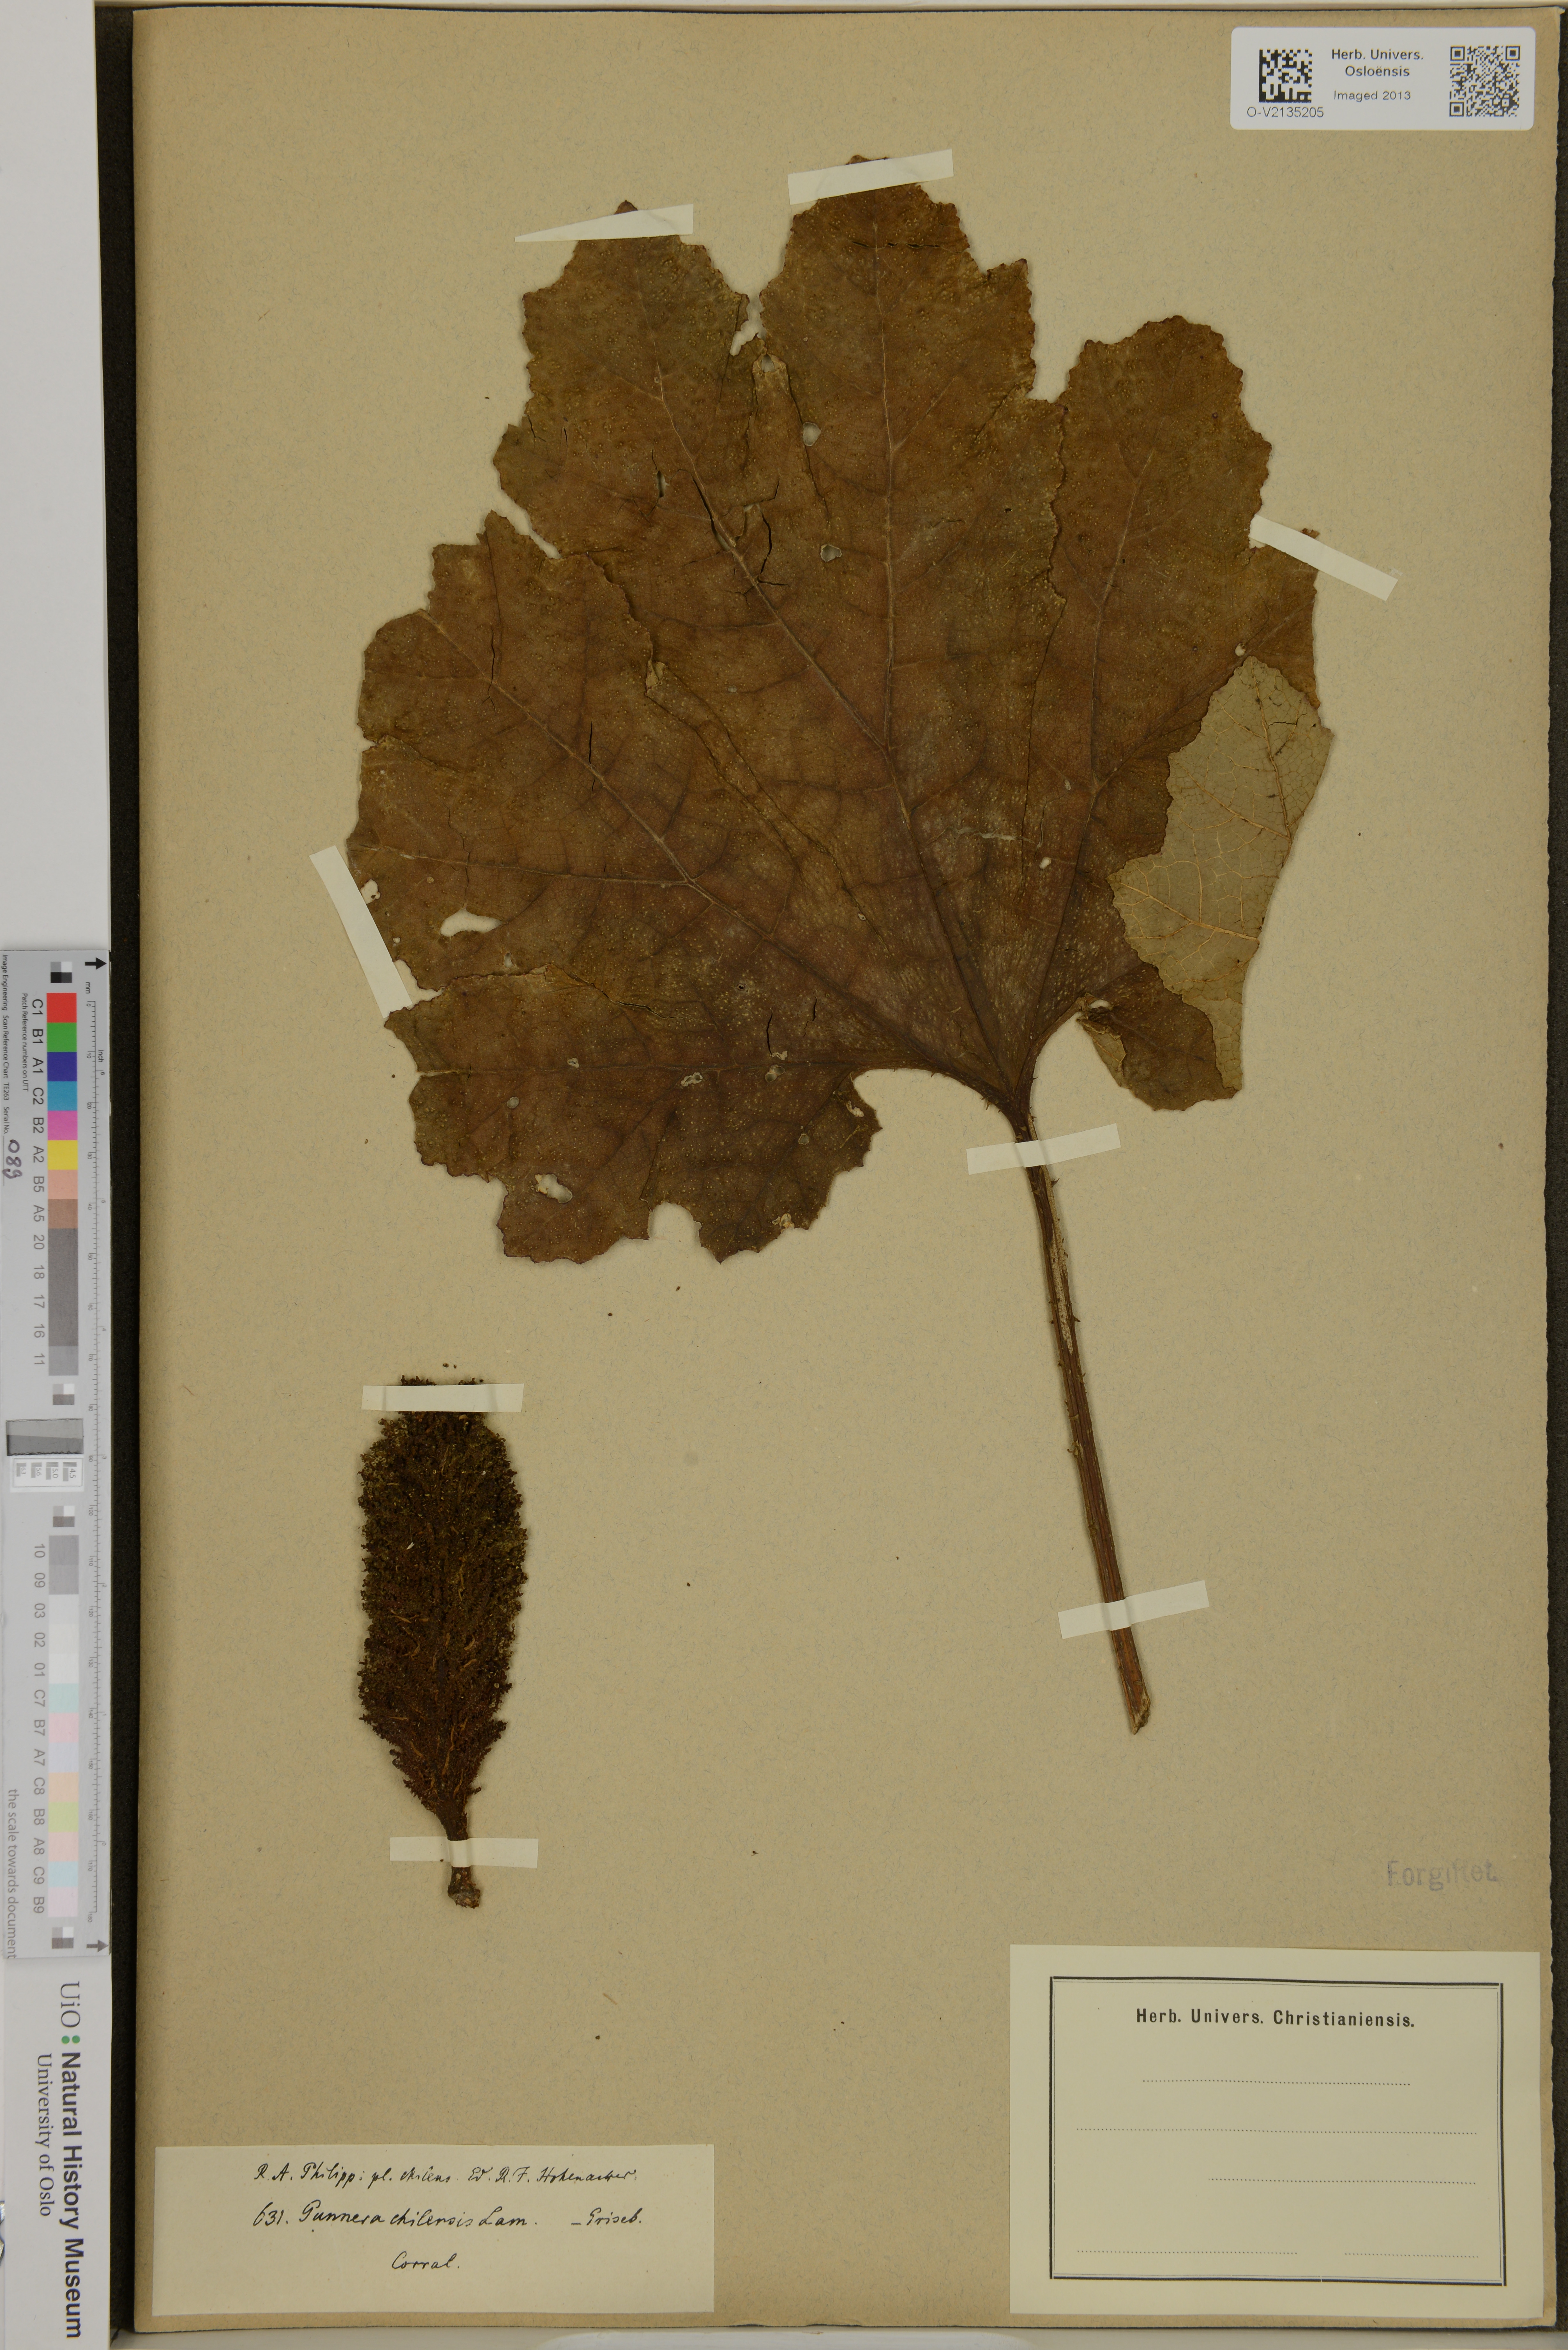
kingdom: Plantae
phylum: Tracheophyta
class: Magnoliopsida
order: Gunnerales
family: Gunneraceae
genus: Gunnera
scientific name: Gunnera tinctoria
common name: Giant-rhubarb
